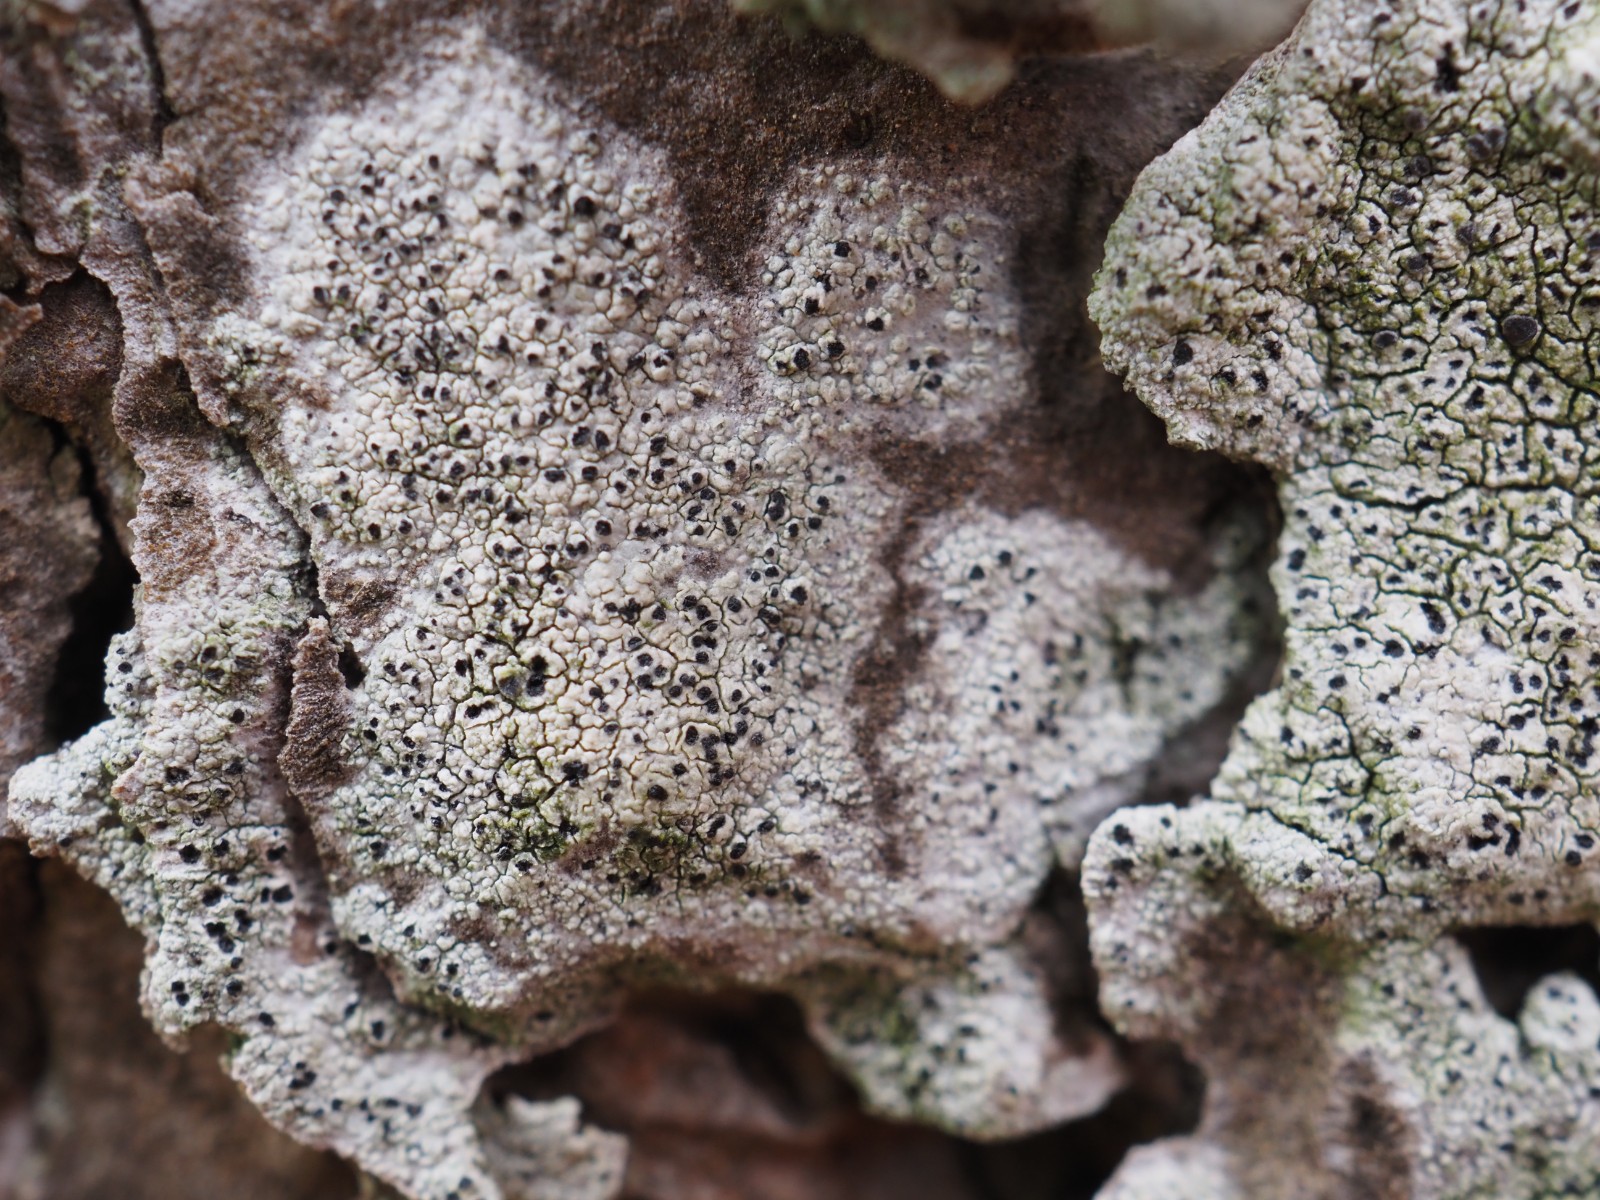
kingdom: Fungi
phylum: Ascomycota
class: Lecanoromycetes
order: Lecanorales
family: Ramalinaceae
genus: Cliostomum
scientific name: Cliostomum griffithii
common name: trefarvet tensporelav
